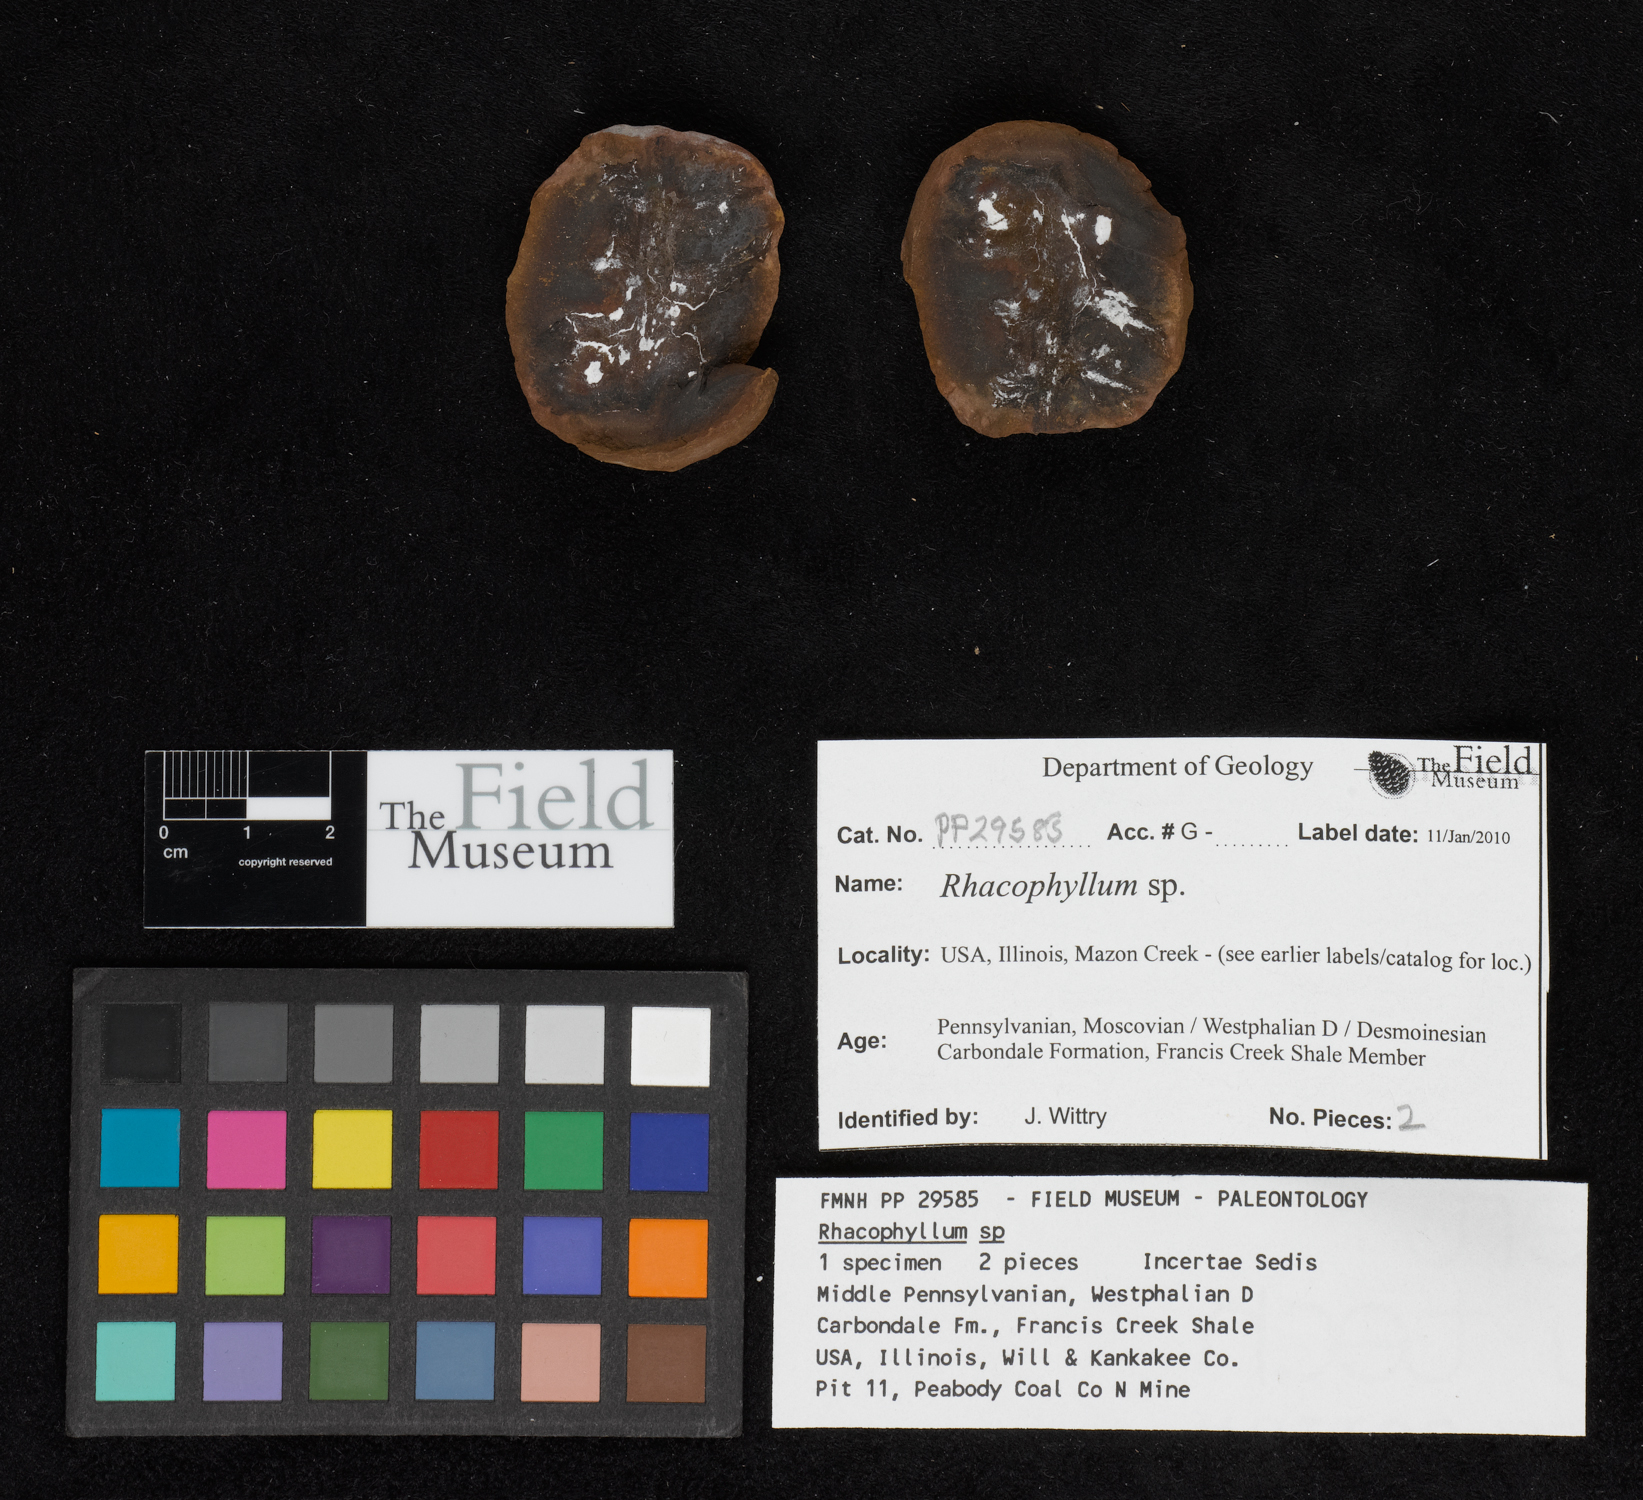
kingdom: Plantae
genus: Rhacophyllum
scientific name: Rhacophyllum
